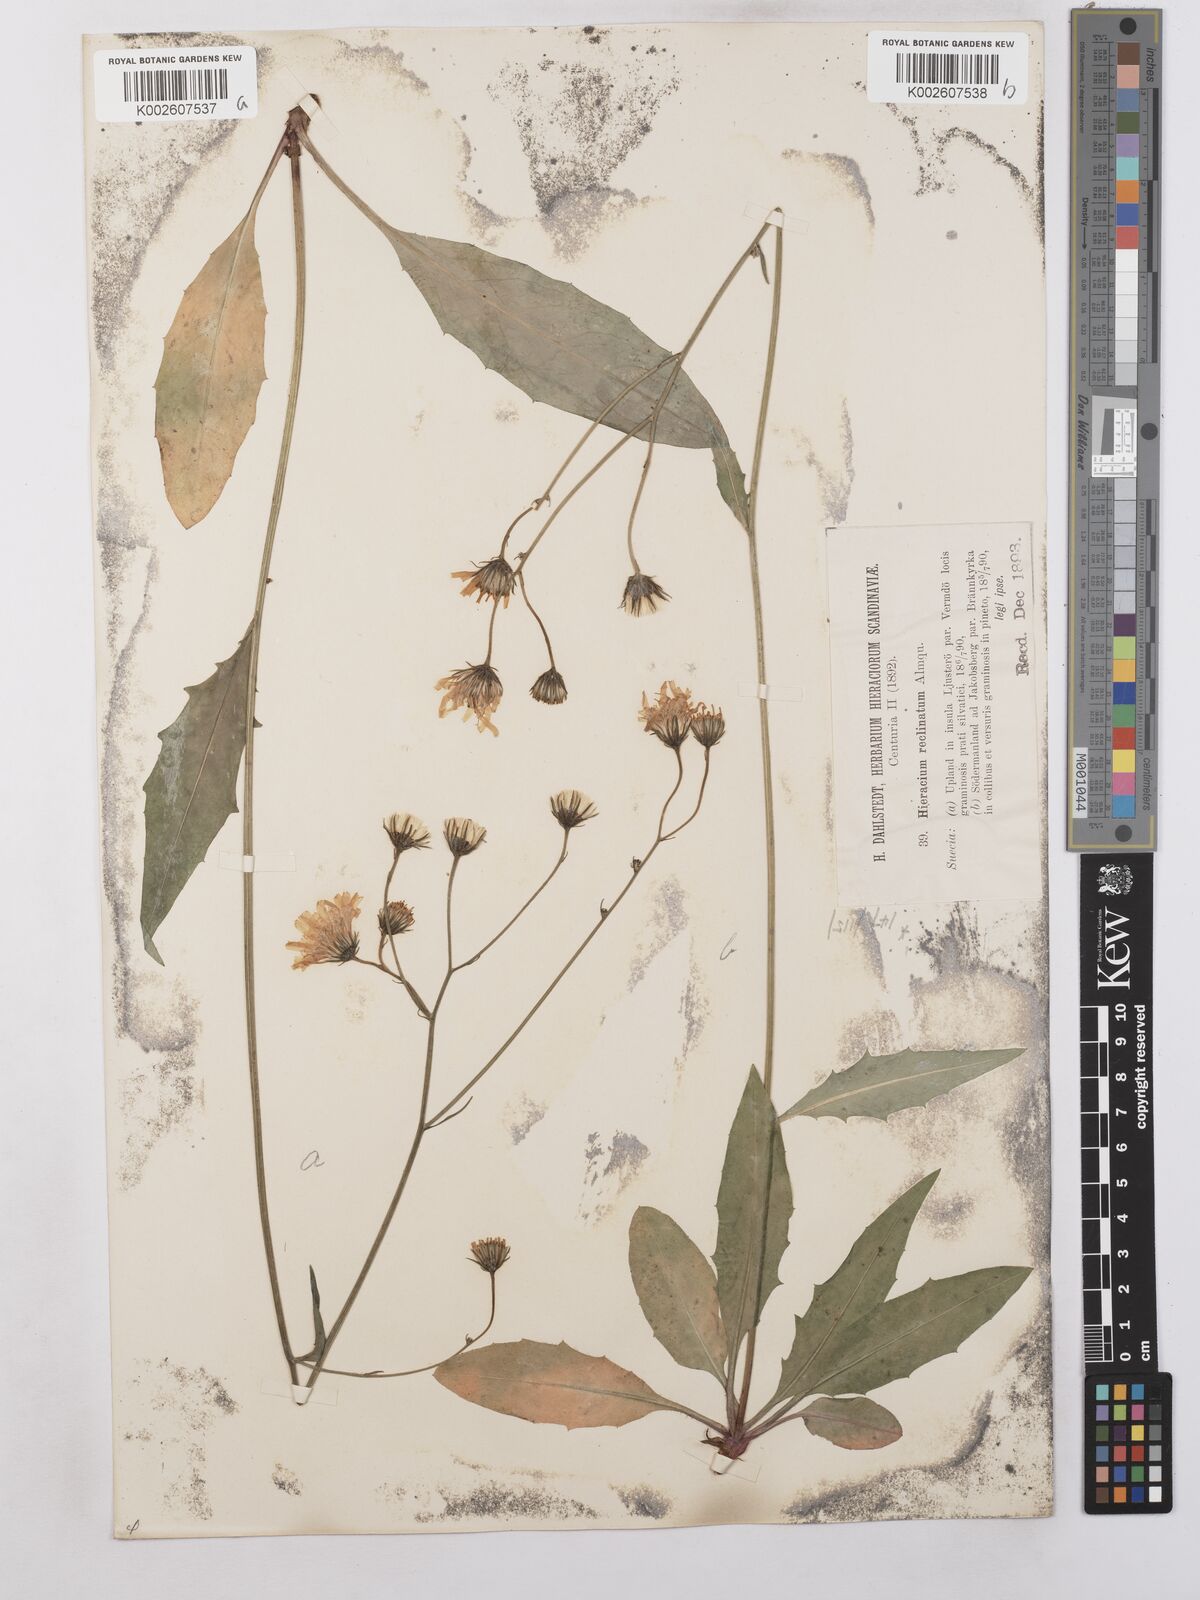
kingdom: Plantae
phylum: Tracheophyta
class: Magnoliopsida
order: Asterales
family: Asteraceae
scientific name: Asteraceae
